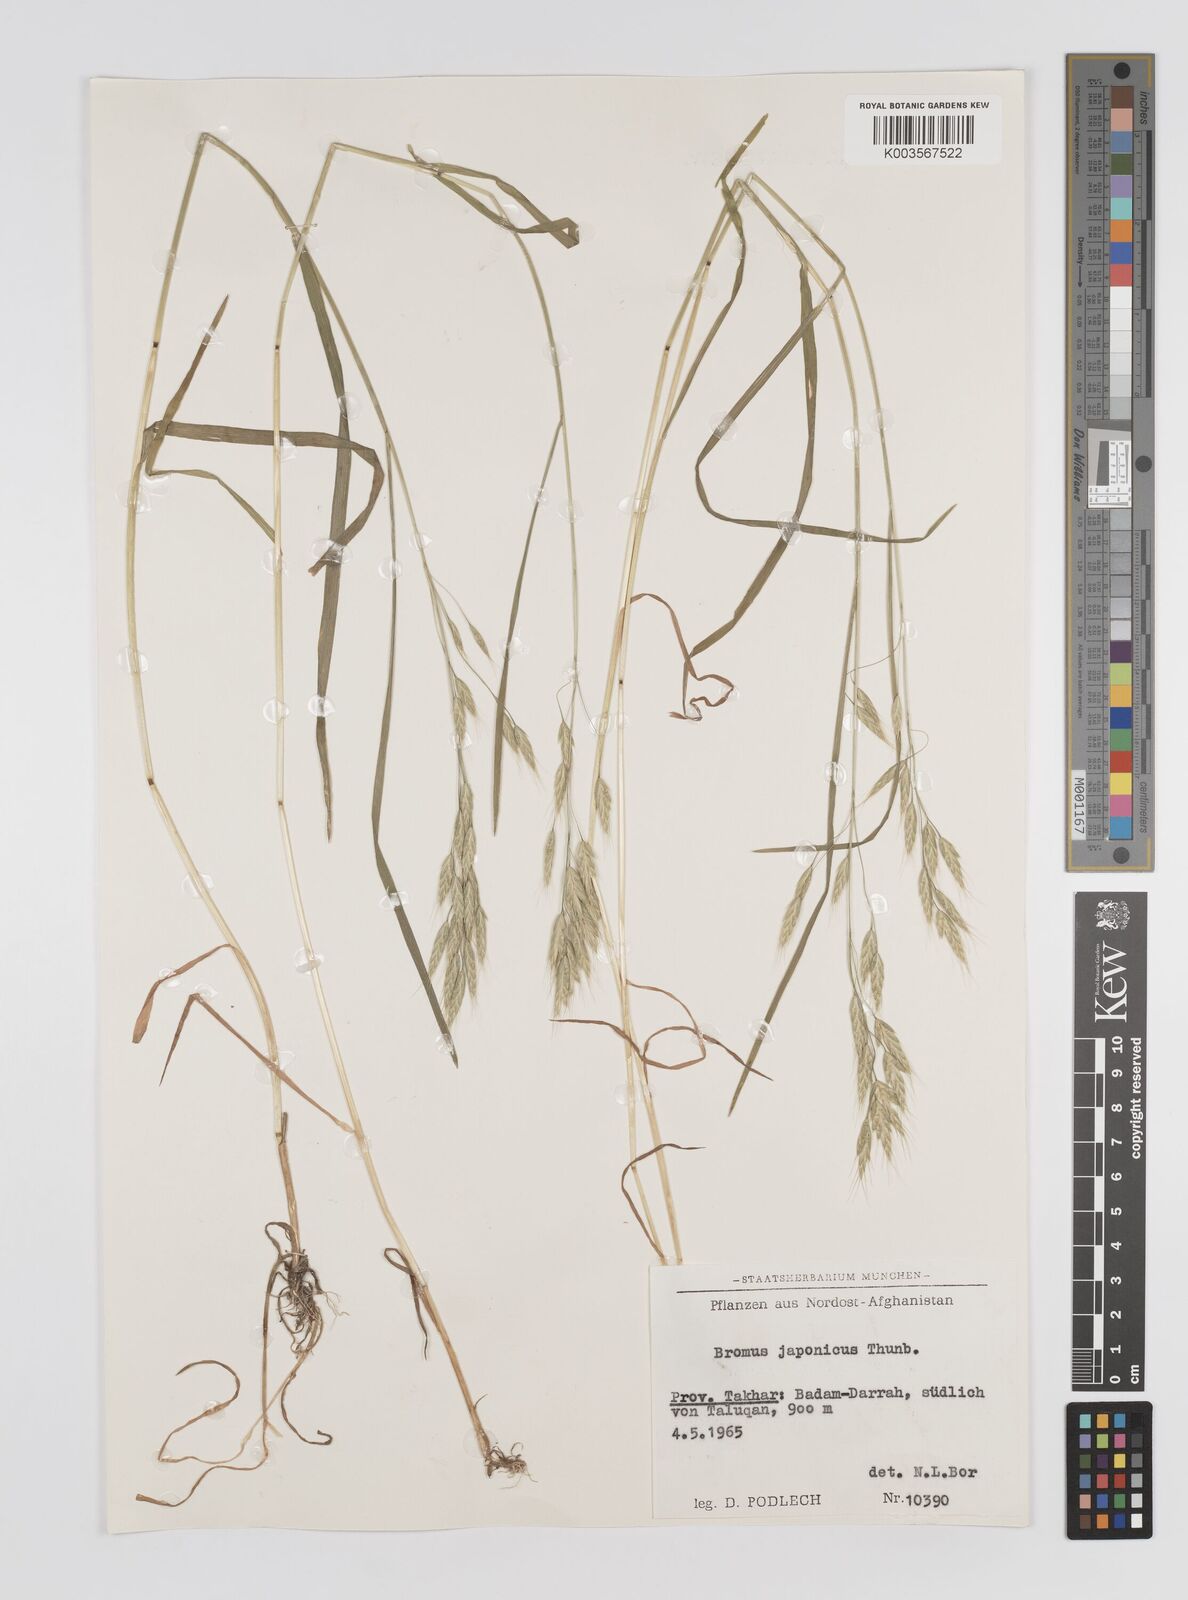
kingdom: Plantae
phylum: Tracheophyta
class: Liliopsida
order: Poales
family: Poaceae
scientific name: Poaceae
